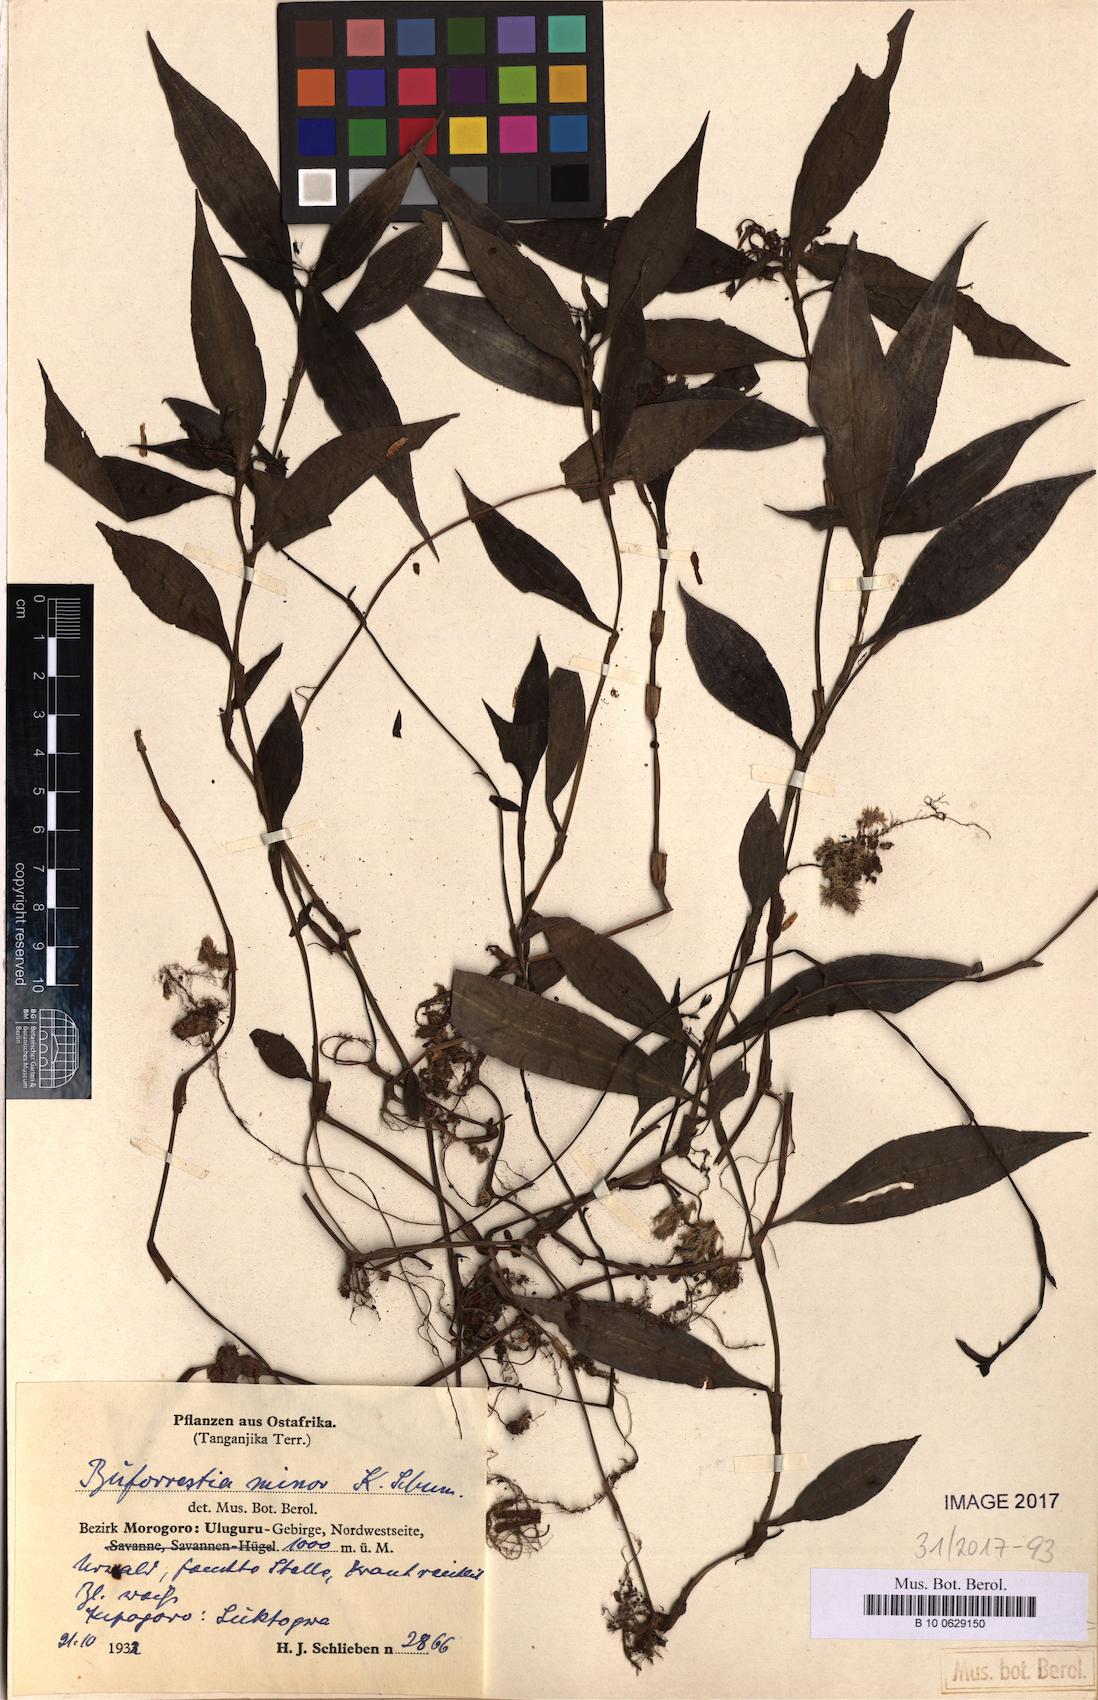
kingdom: Plantae
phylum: Tracheophyta
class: Liliopsida
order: Commelinales
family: Commelinaceae
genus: Stanfieldiella
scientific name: Stanfieldiella imperforata
